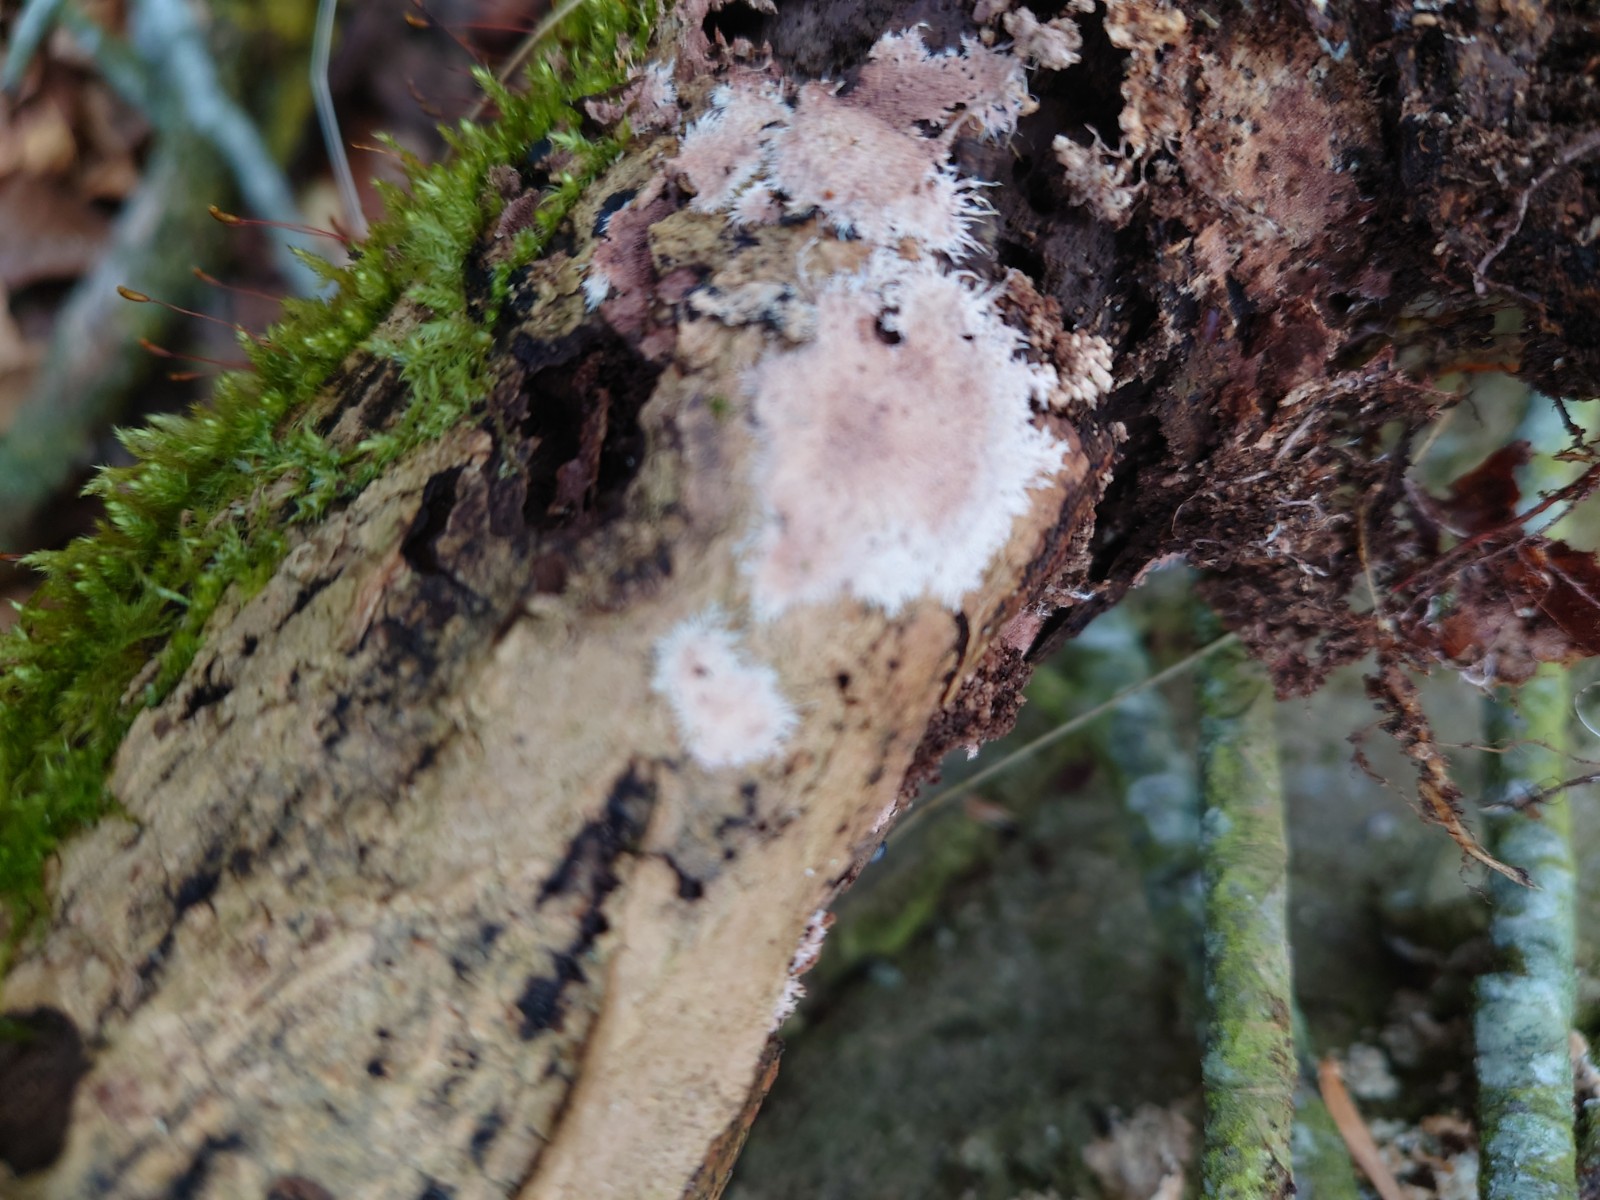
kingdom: Fungi
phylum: Basidiomycota
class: Agaricomycetes
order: Polyporales
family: Steccherinaceae
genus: Steccherinum
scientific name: Steccherinum fimbriatum
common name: trådet skønpig
